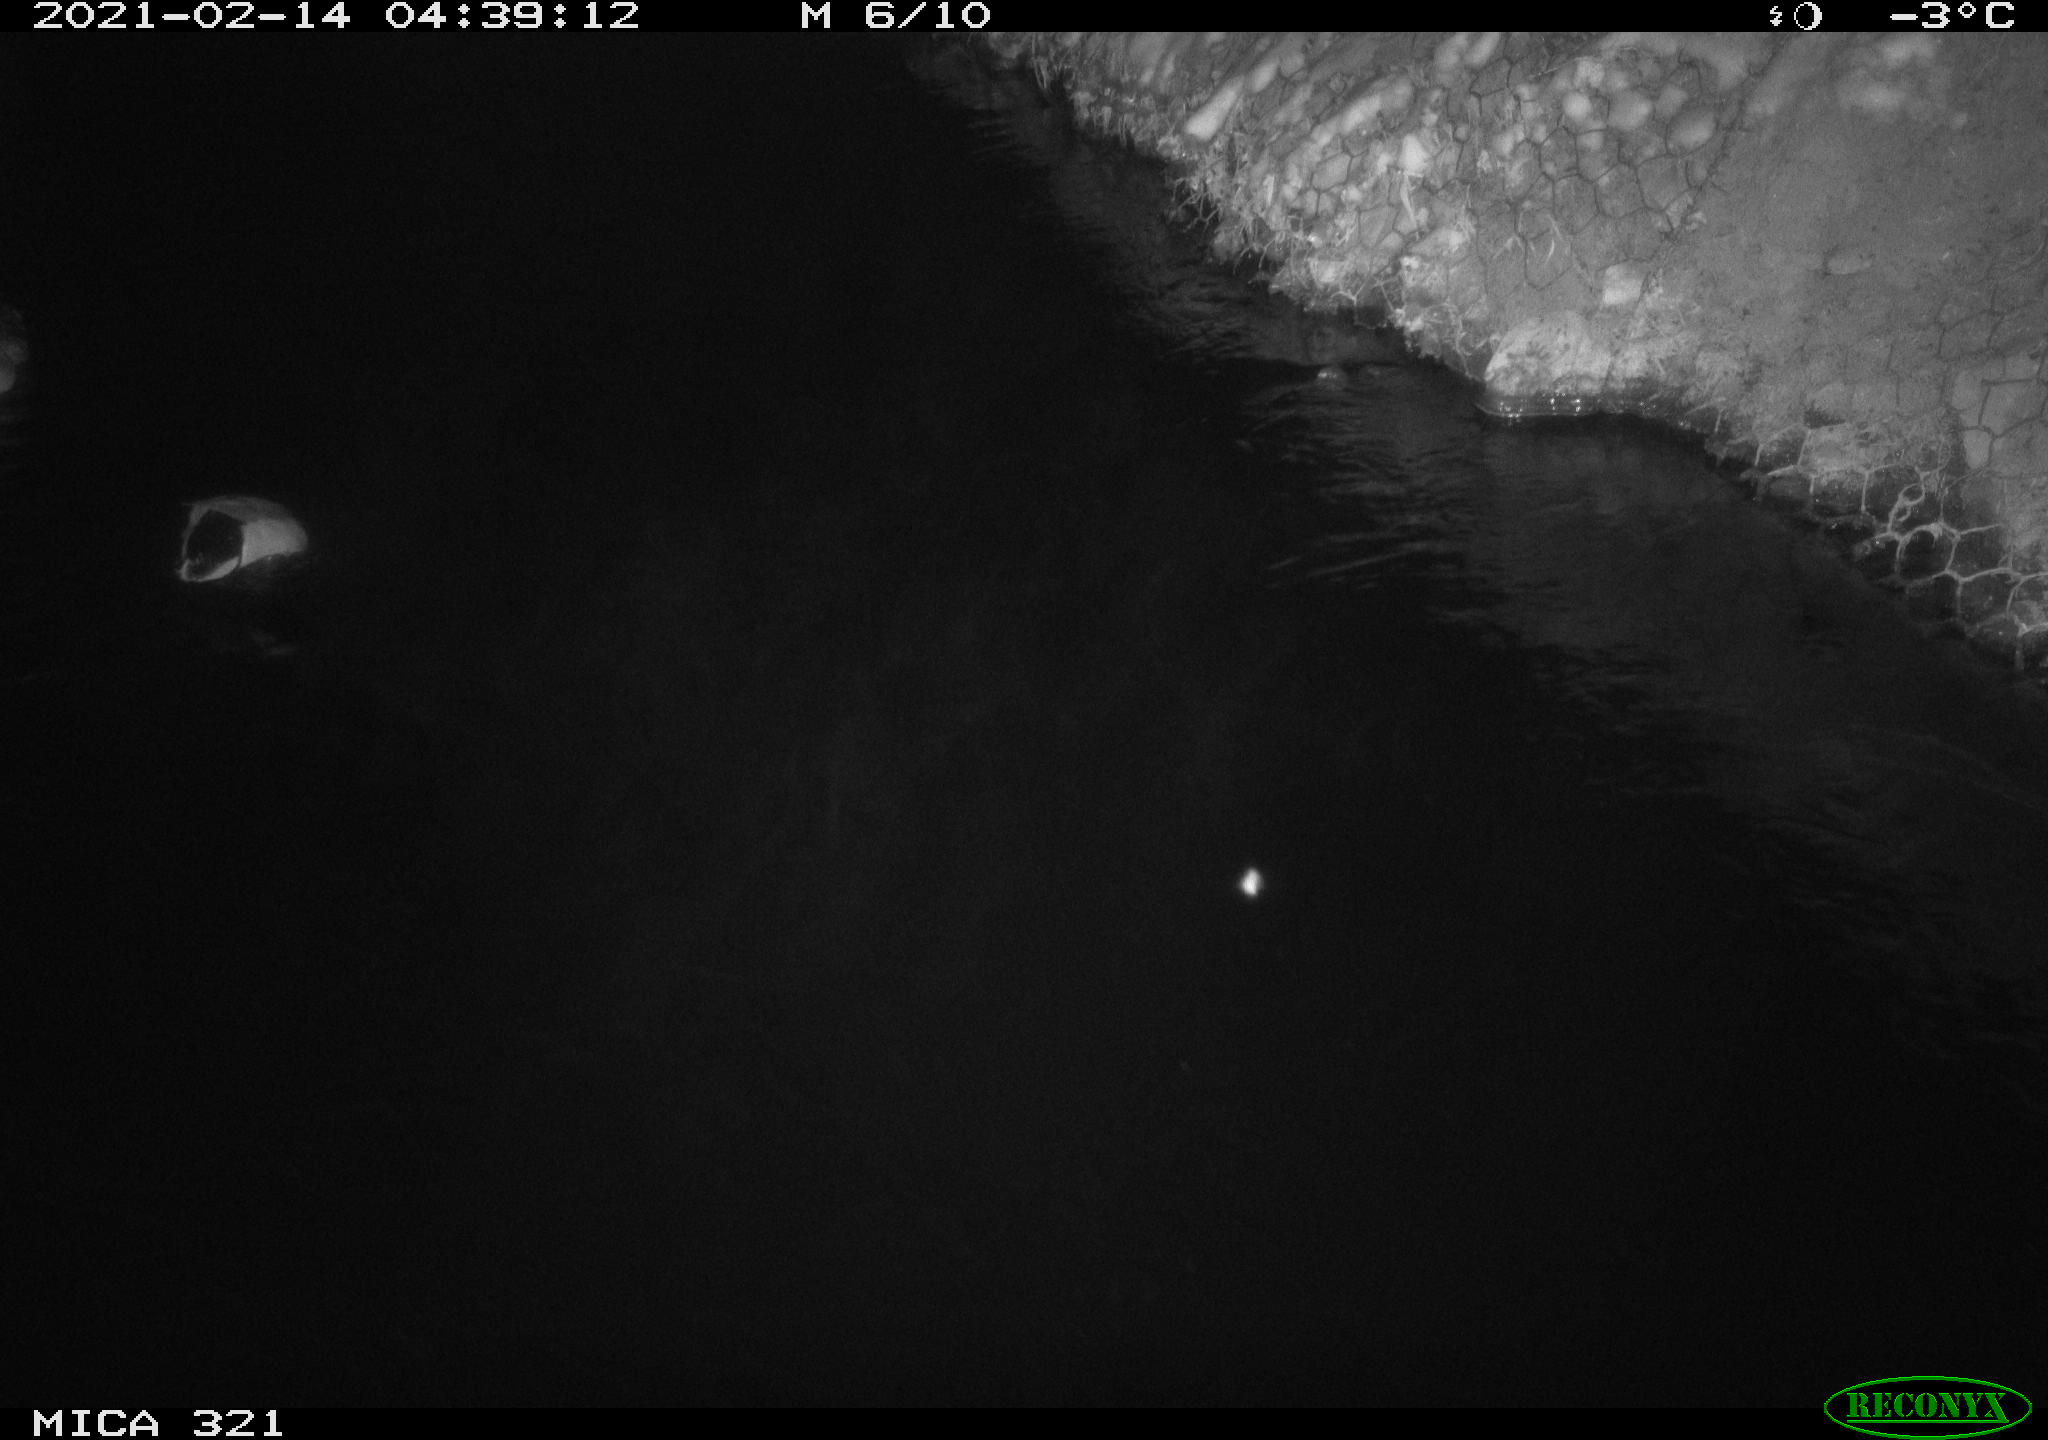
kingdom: Animalia
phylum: Chordata
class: Aves
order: Anseriformes
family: Anatidae
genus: Anas
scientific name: Anas platyrhynchos
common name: Mallard
